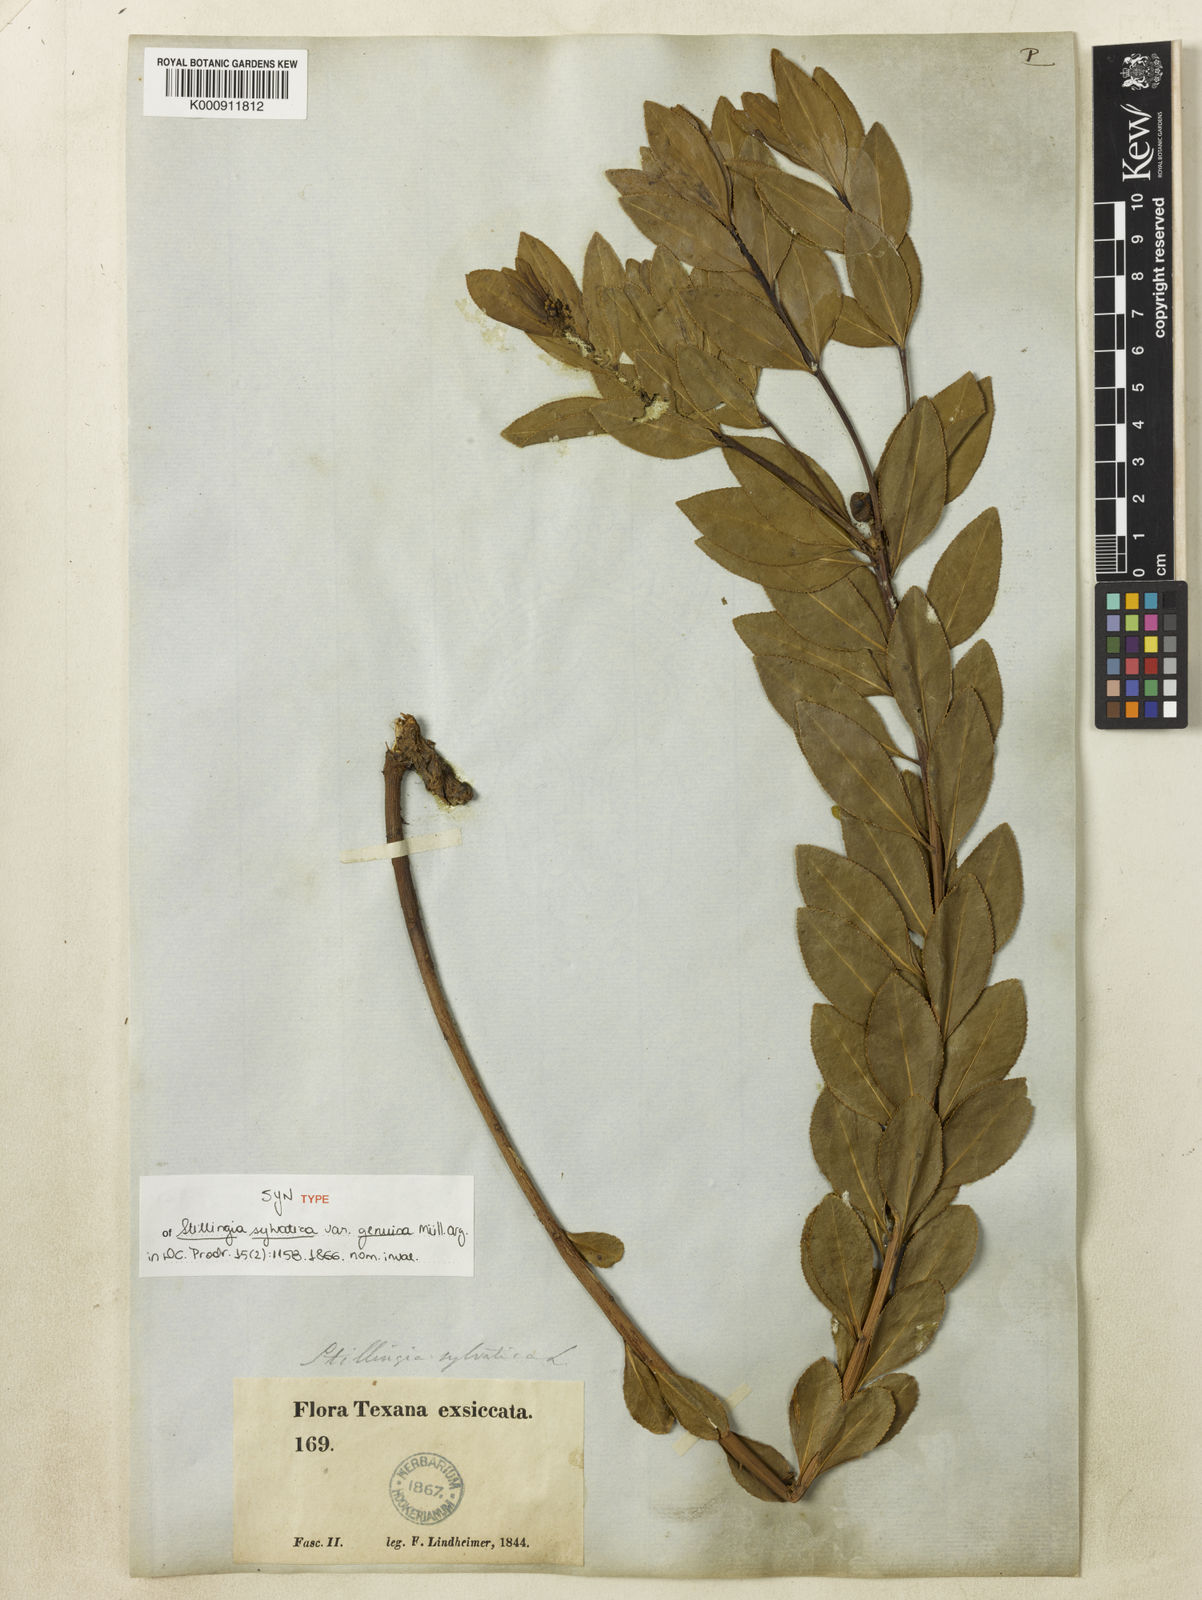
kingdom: Plantae
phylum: Tracheophyta
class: Magnoliopsida
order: Malpighiales
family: Euphorbiaceae
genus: Stillingia
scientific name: Stillingia sylvatica
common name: Queen's-delight
